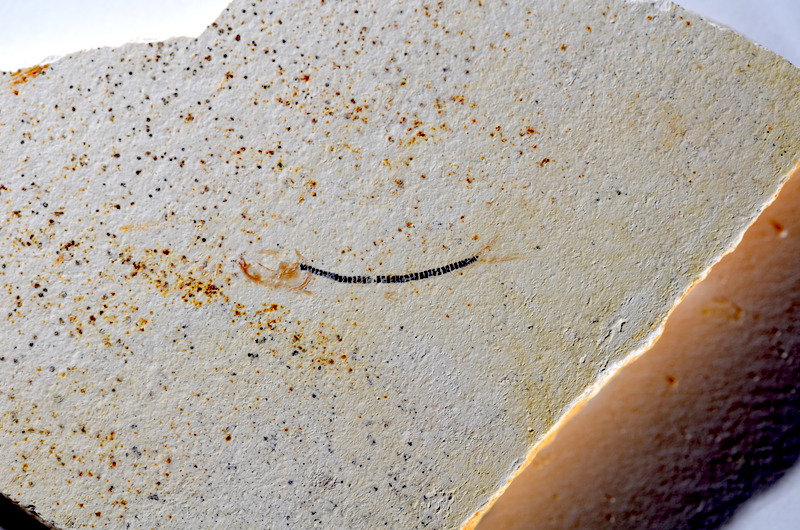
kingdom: Animalia
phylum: Chordata
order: Salmoniformes
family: Orthogonikleithridae
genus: Orthogonikleithrus
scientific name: Orthogonikleithrus hoelli
